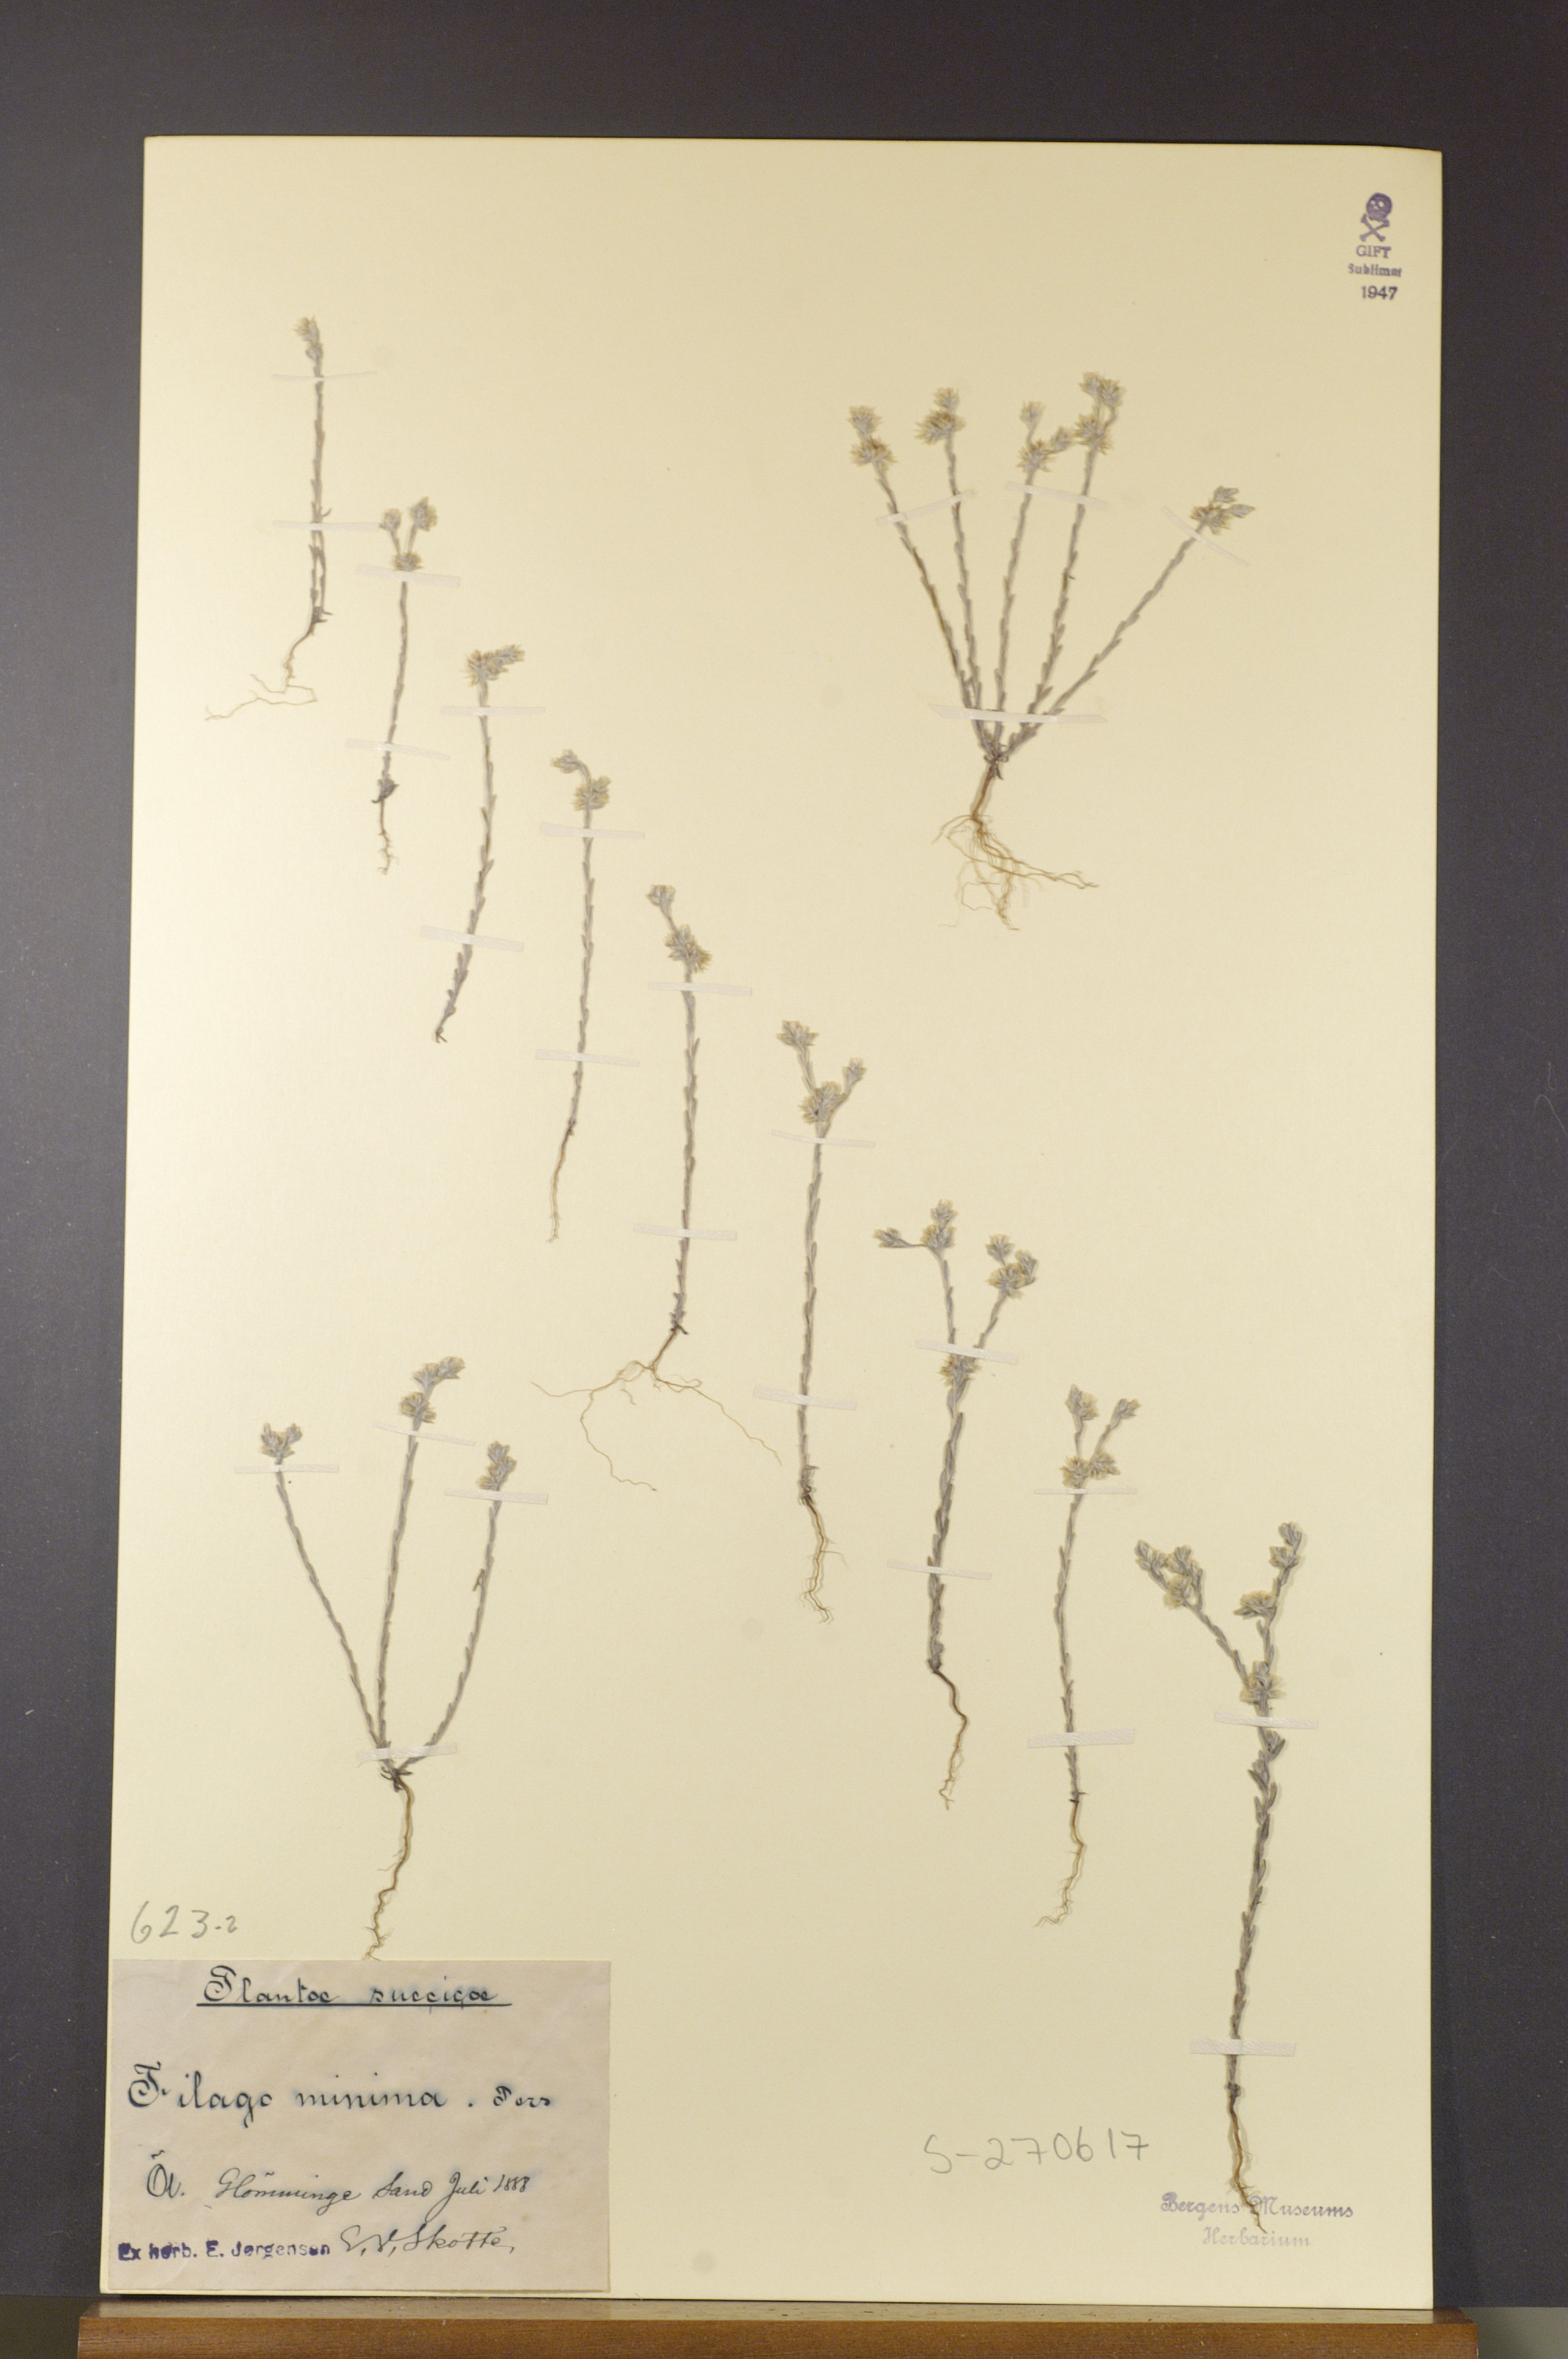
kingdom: Plantae
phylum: Tracheophyta
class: Magnoliopsida
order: Asterales
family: Asteraceae
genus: Logfia
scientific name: Logfia minima
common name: Little cottonrose
